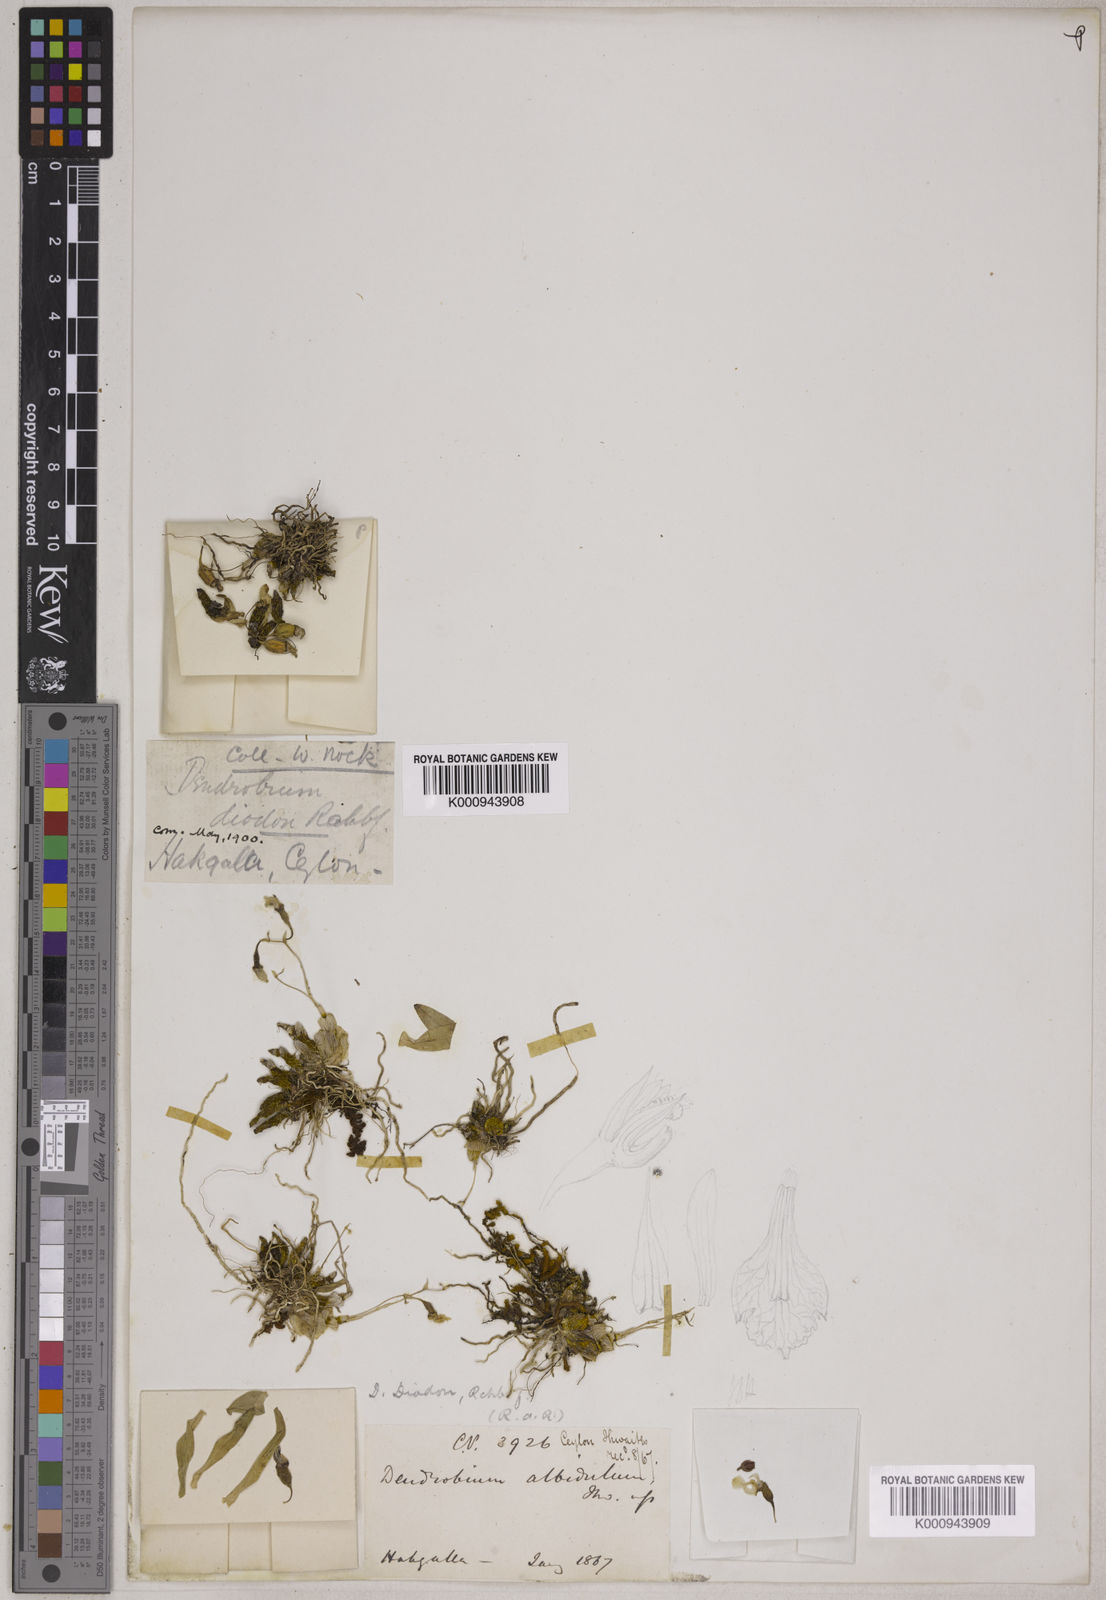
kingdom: Plantae
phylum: Tracheophyta
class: Liliopsida
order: Asparagales
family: Orchidaceae
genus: Dendrobium
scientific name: Dendrobium diodon
